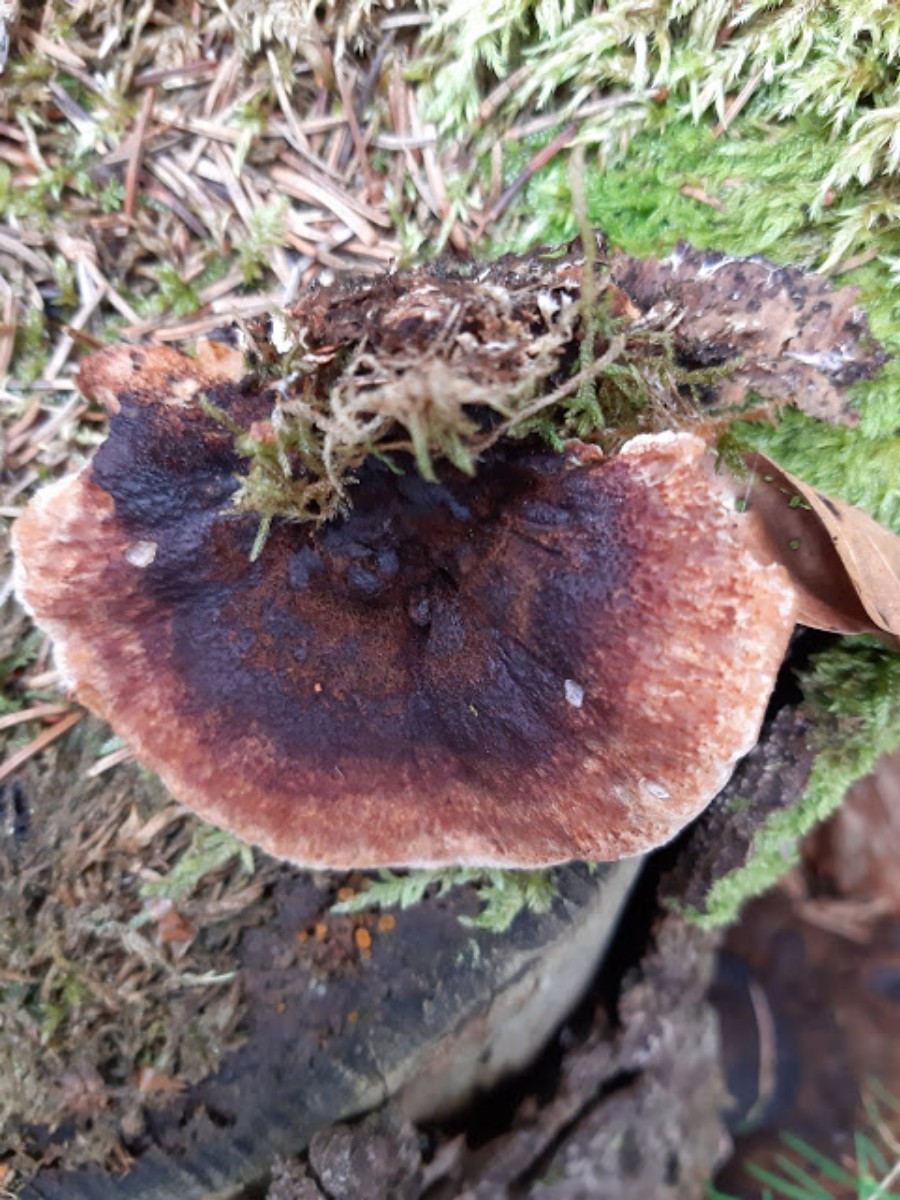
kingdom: Fungi
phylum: Basidiomycota
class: Agaricomycetes
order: Polyporales
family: Ischnodermataceae
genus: Ischnoderma
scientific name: Ischnoderma benzoinum
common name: gran-tjæreporesvamp
